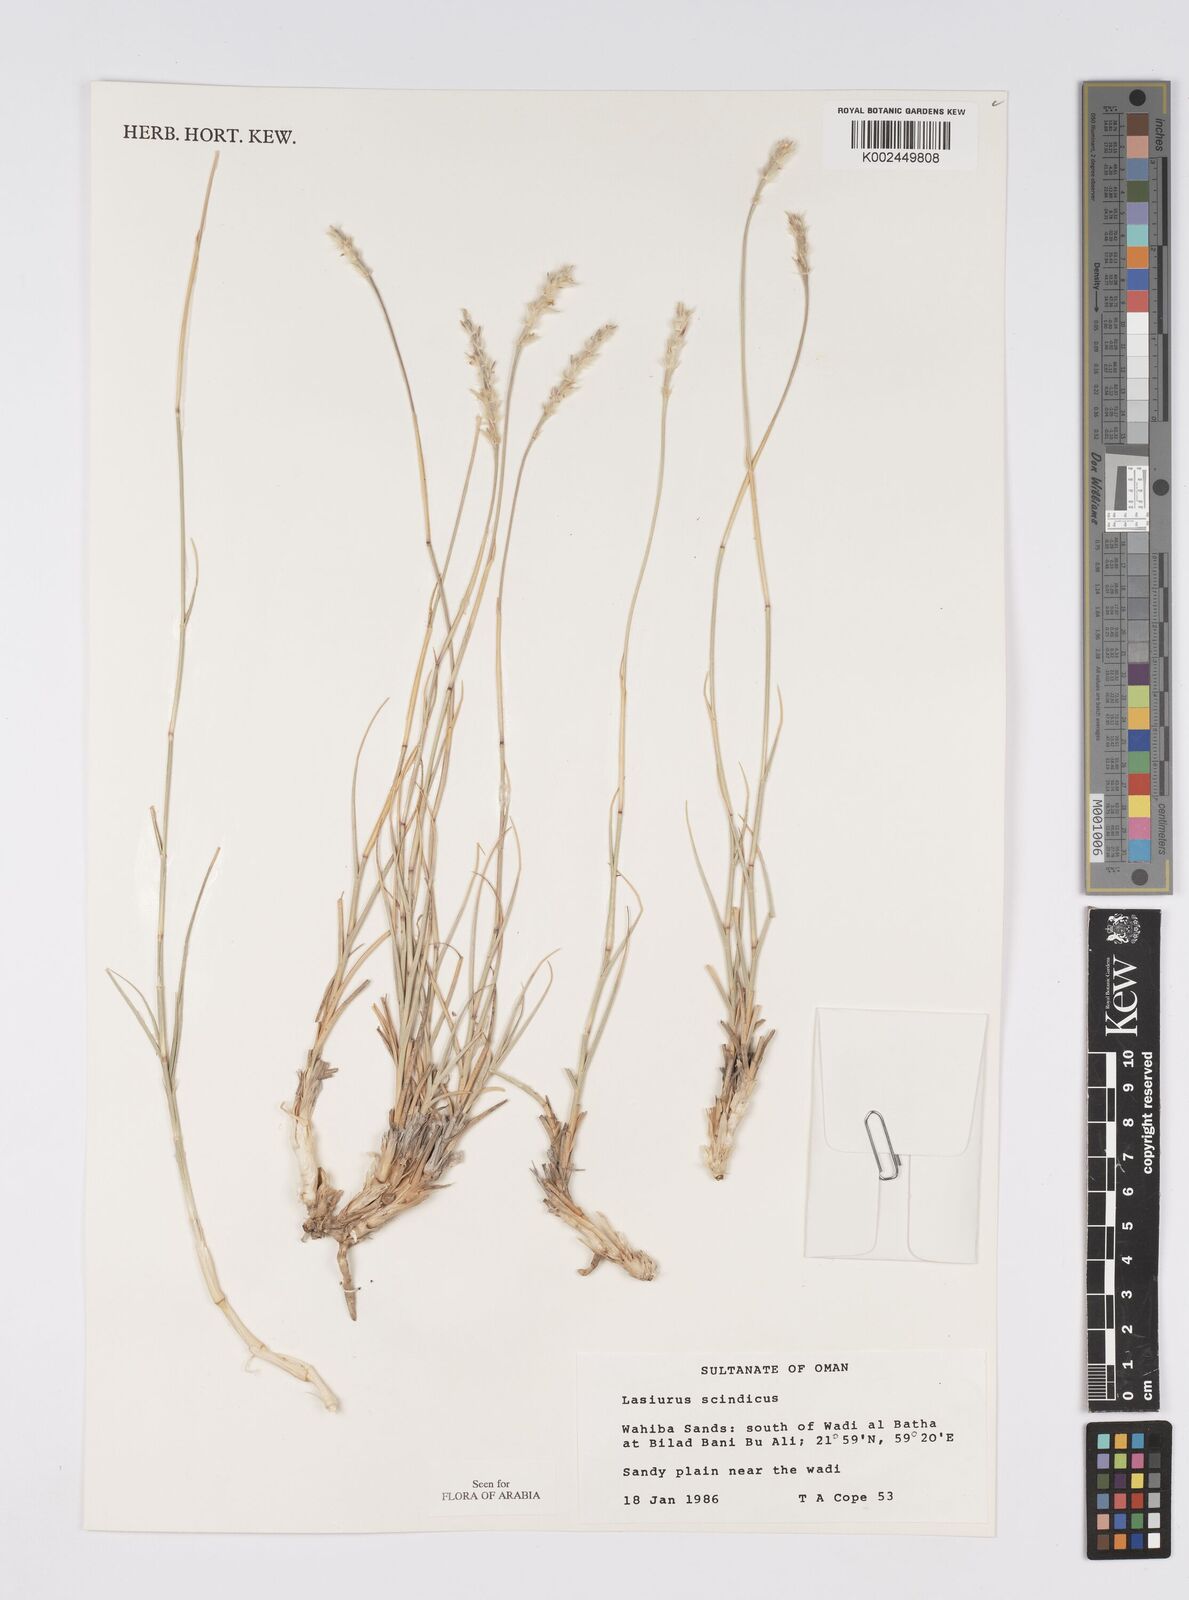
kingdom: Plantae
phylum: Tracheophyta
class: Liliopsida
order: Poales
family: Poaceae
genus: Lasiurus
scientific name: Lasiurus scindicus
